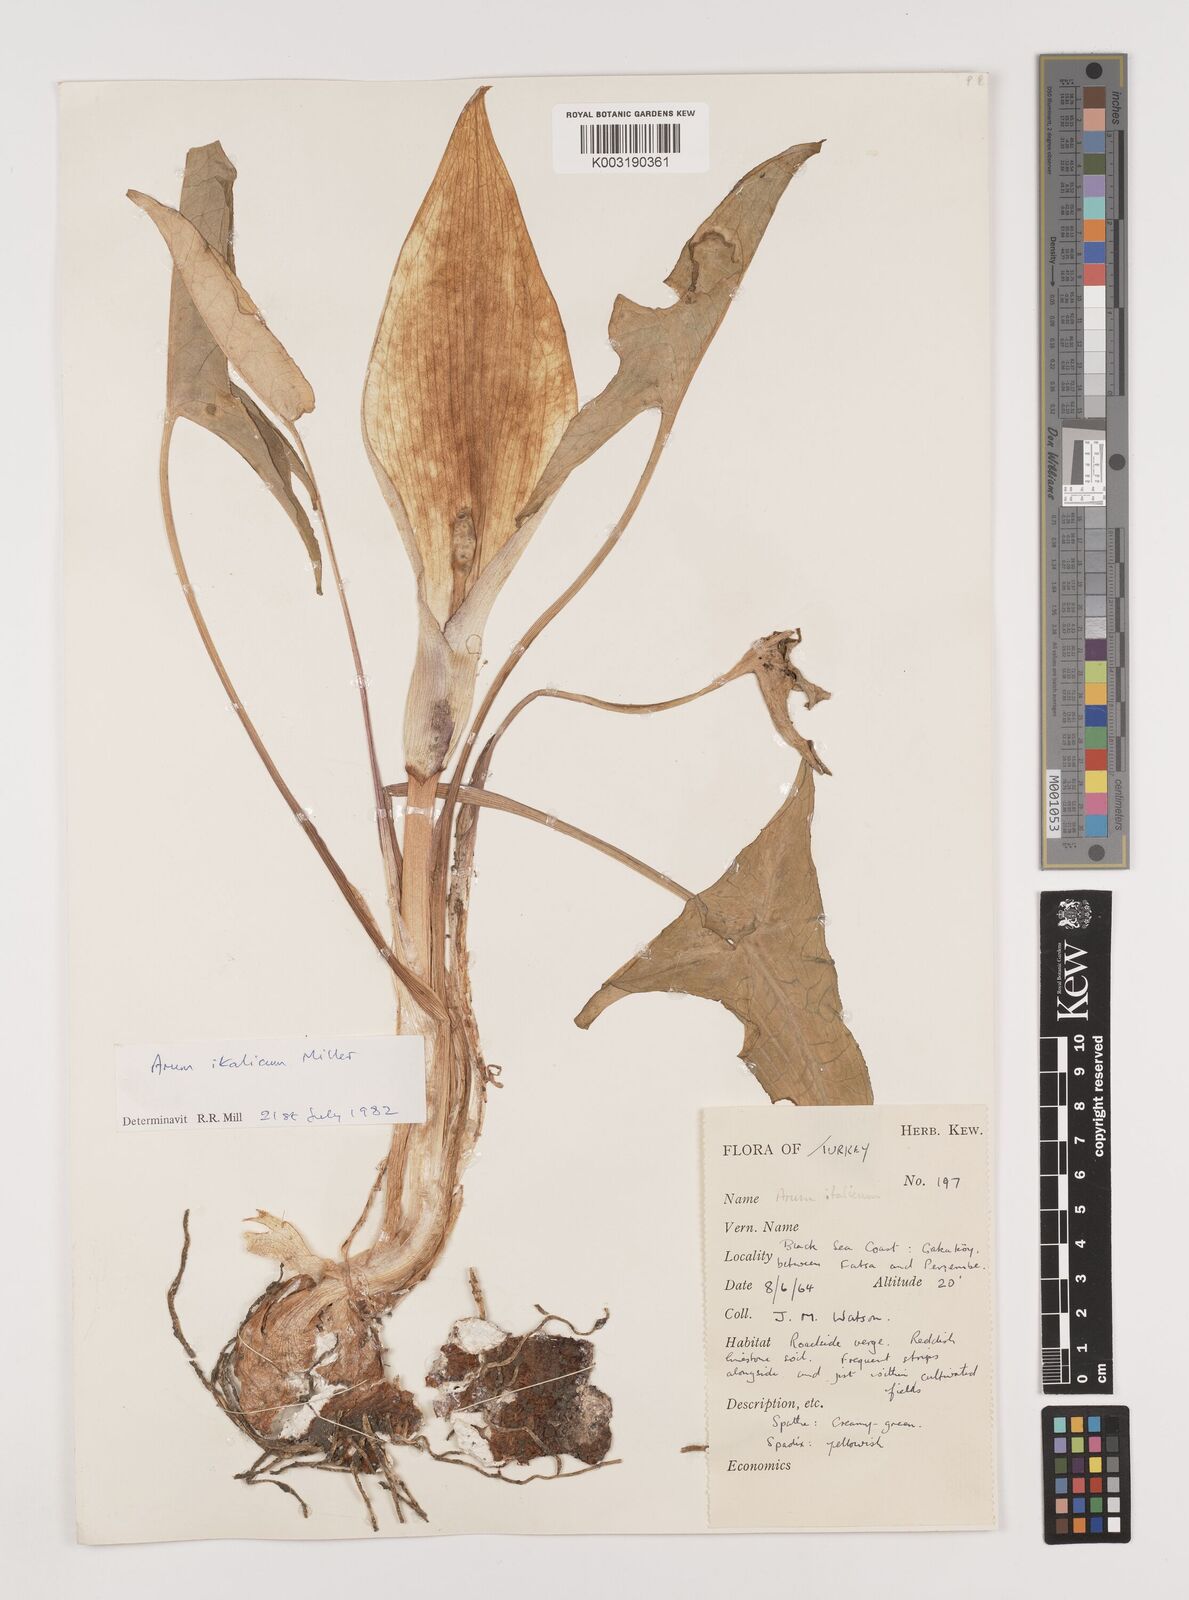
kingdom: Plantae
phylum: Tracheophyta
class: Liliopsida
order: Alismatales
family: Araceae
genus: Arum
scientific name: Arum italicum
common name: Italian lords-and-ladies
